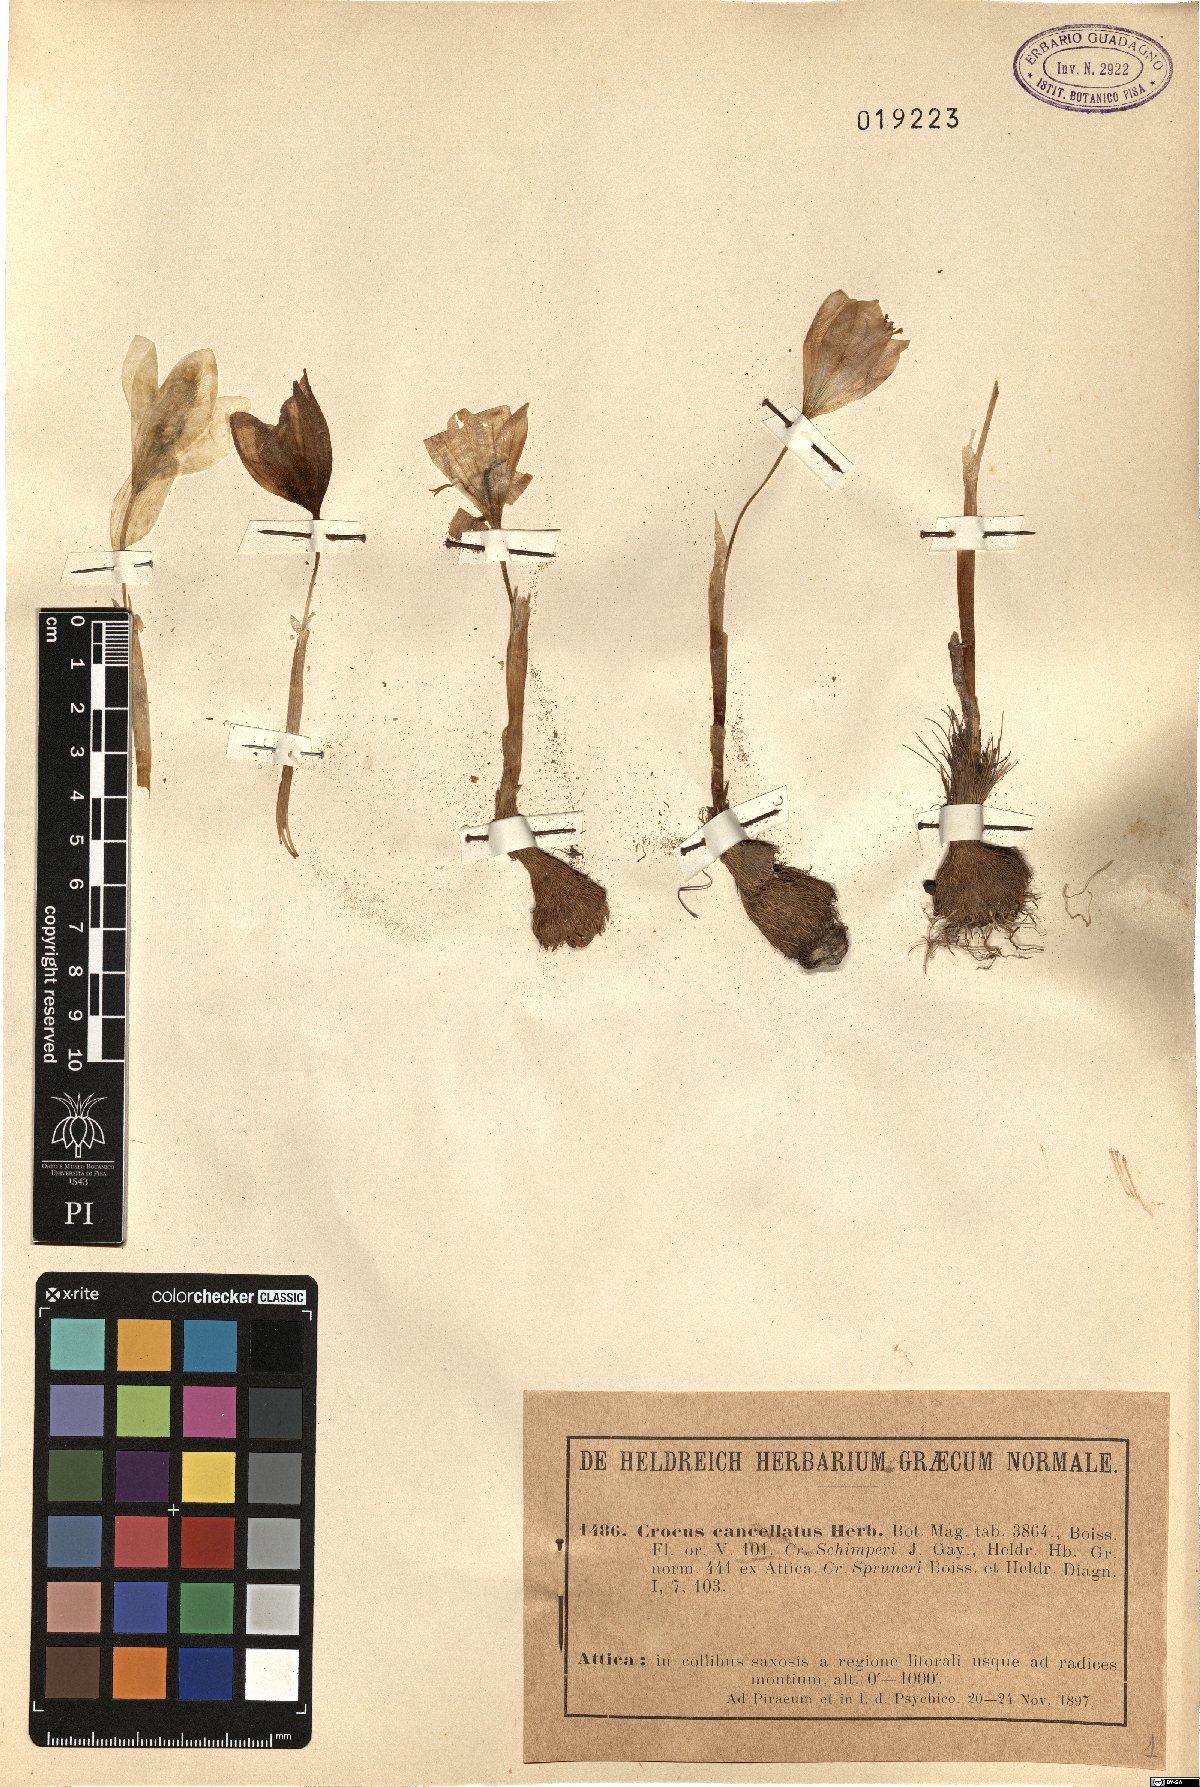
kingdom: Plantae
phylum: Tracheophyta
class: Liliopsida
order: Asparagales
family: Iridaceae
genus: Crocus
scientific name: Crocus cancellatus
